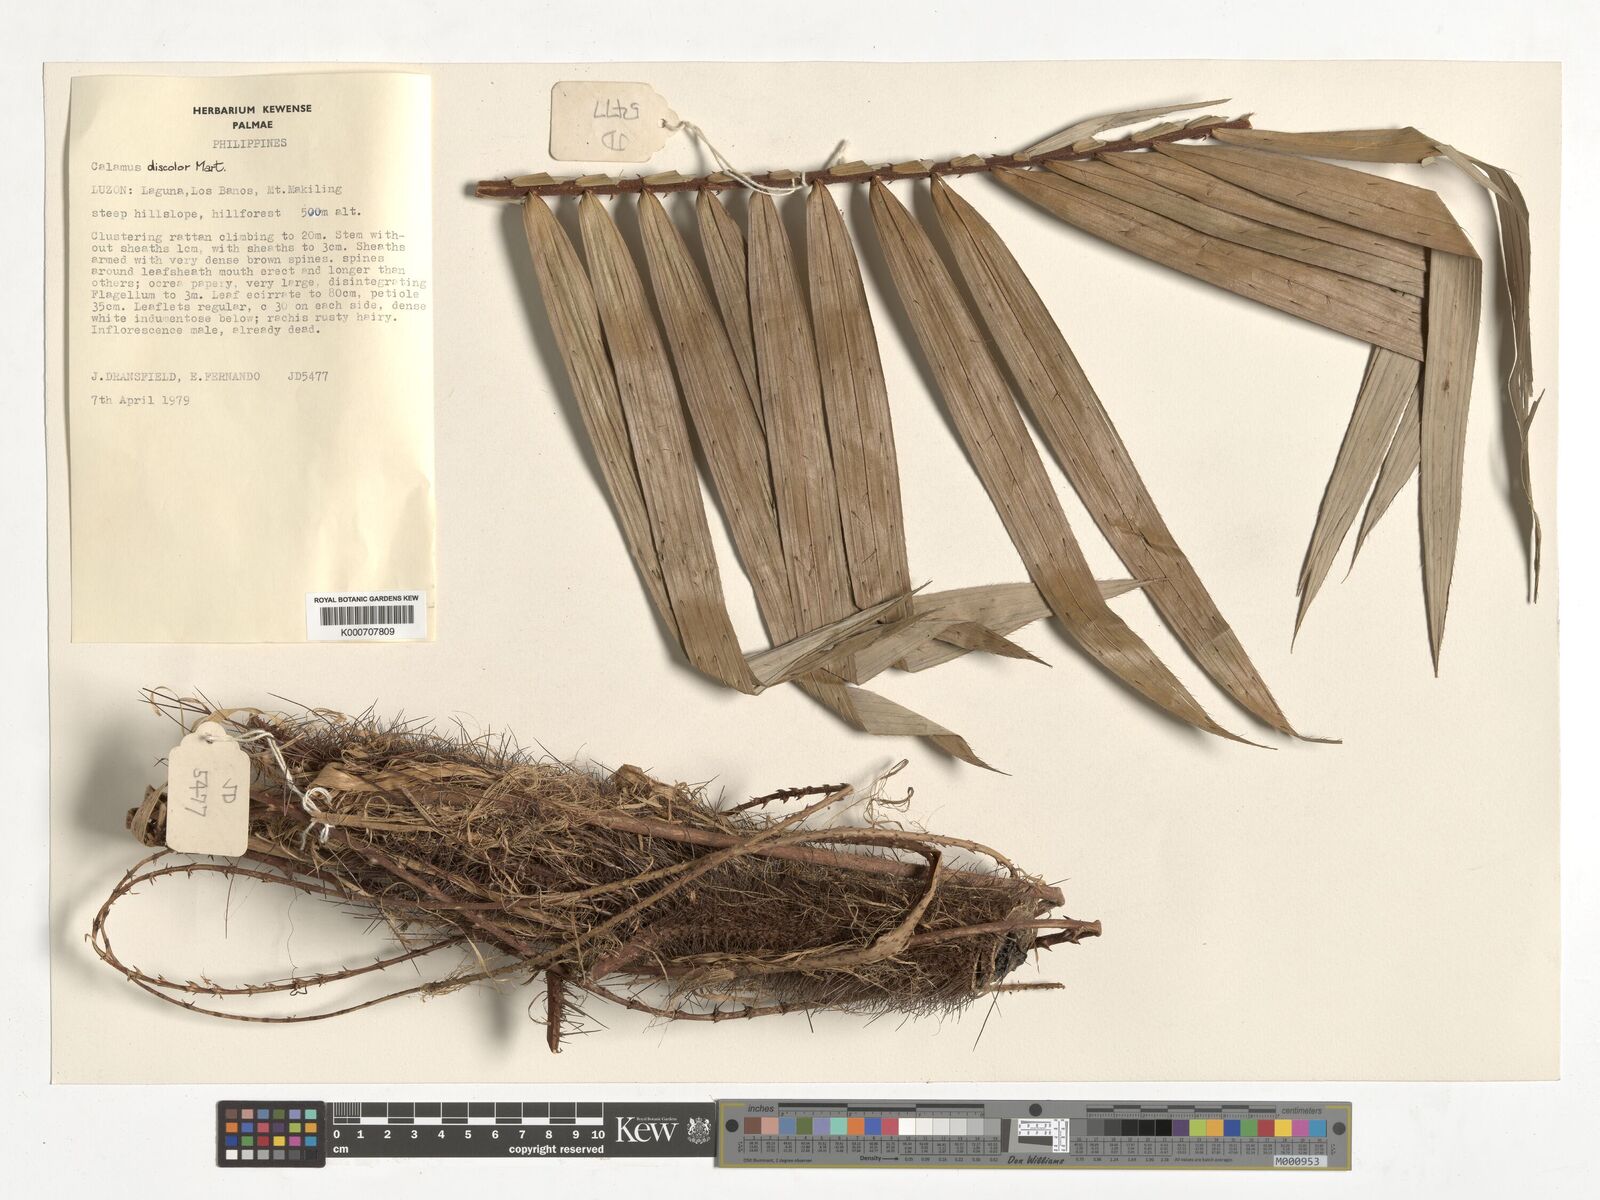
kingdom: Plantae
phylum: Tracheophyta
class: Liliopsida
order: Arecales
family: Arecaceae
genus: Calamus
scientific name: Calamus discolor
